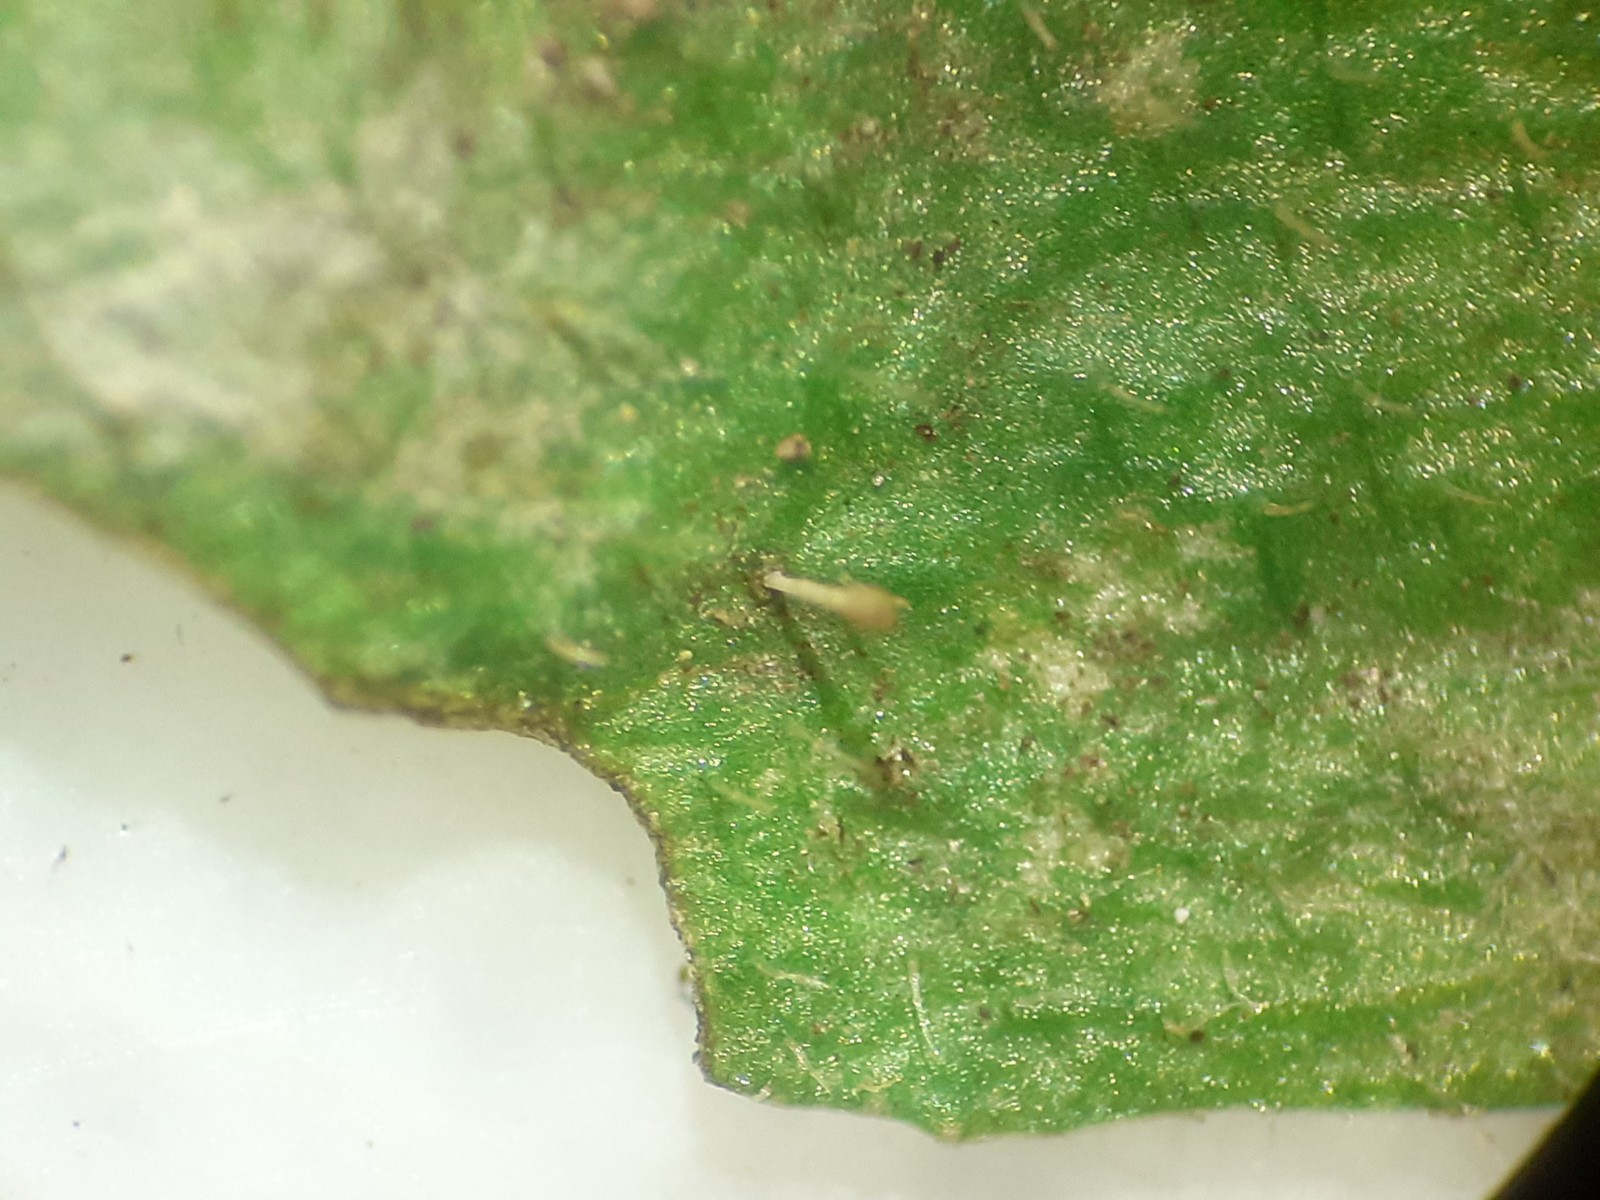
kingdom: Fungi
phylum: Ascomycota
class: Leotiomycetes
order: Helotiales
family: Erysiphaceae
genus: Neoerysiphe
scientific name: Neoerysiphe galeopsidis
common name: Mint mildew
